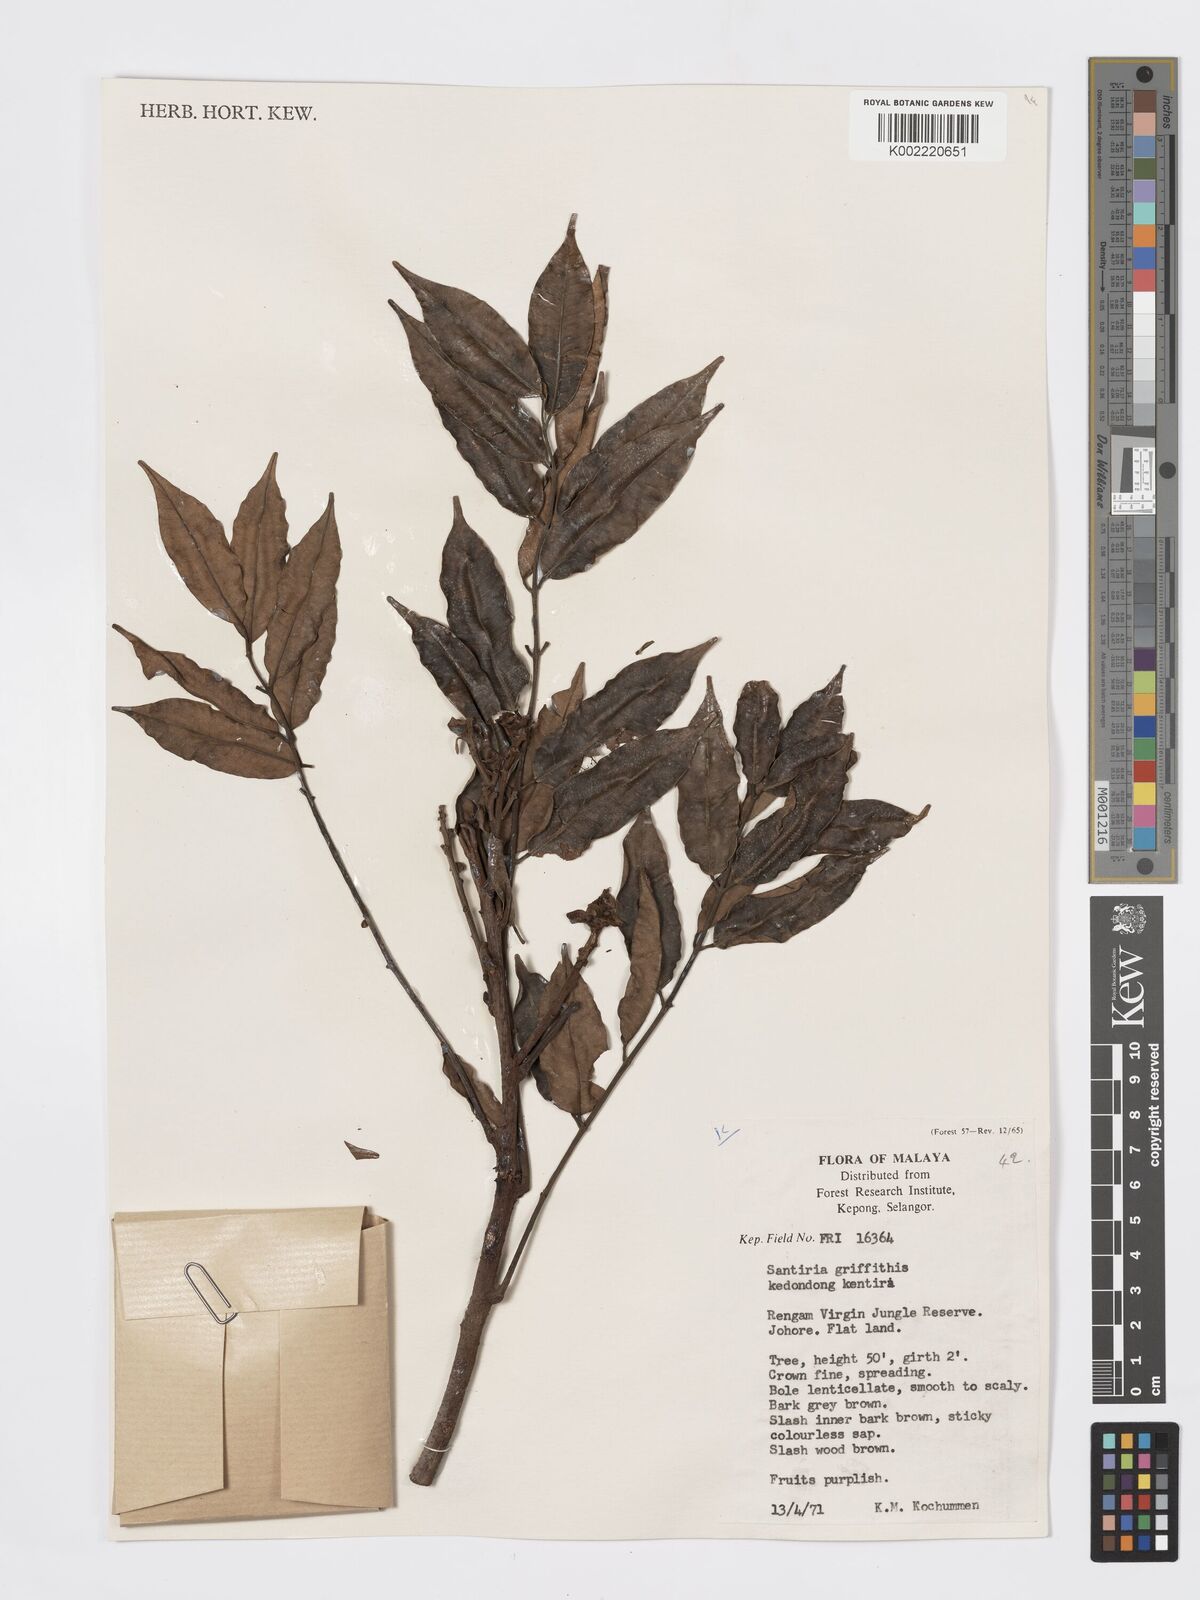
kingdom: Plantae
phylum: Tracheophyta
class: Magnoliopsida
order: Sapindales
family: Burseraceae
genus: Santiria
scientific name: Santiria griffithii
